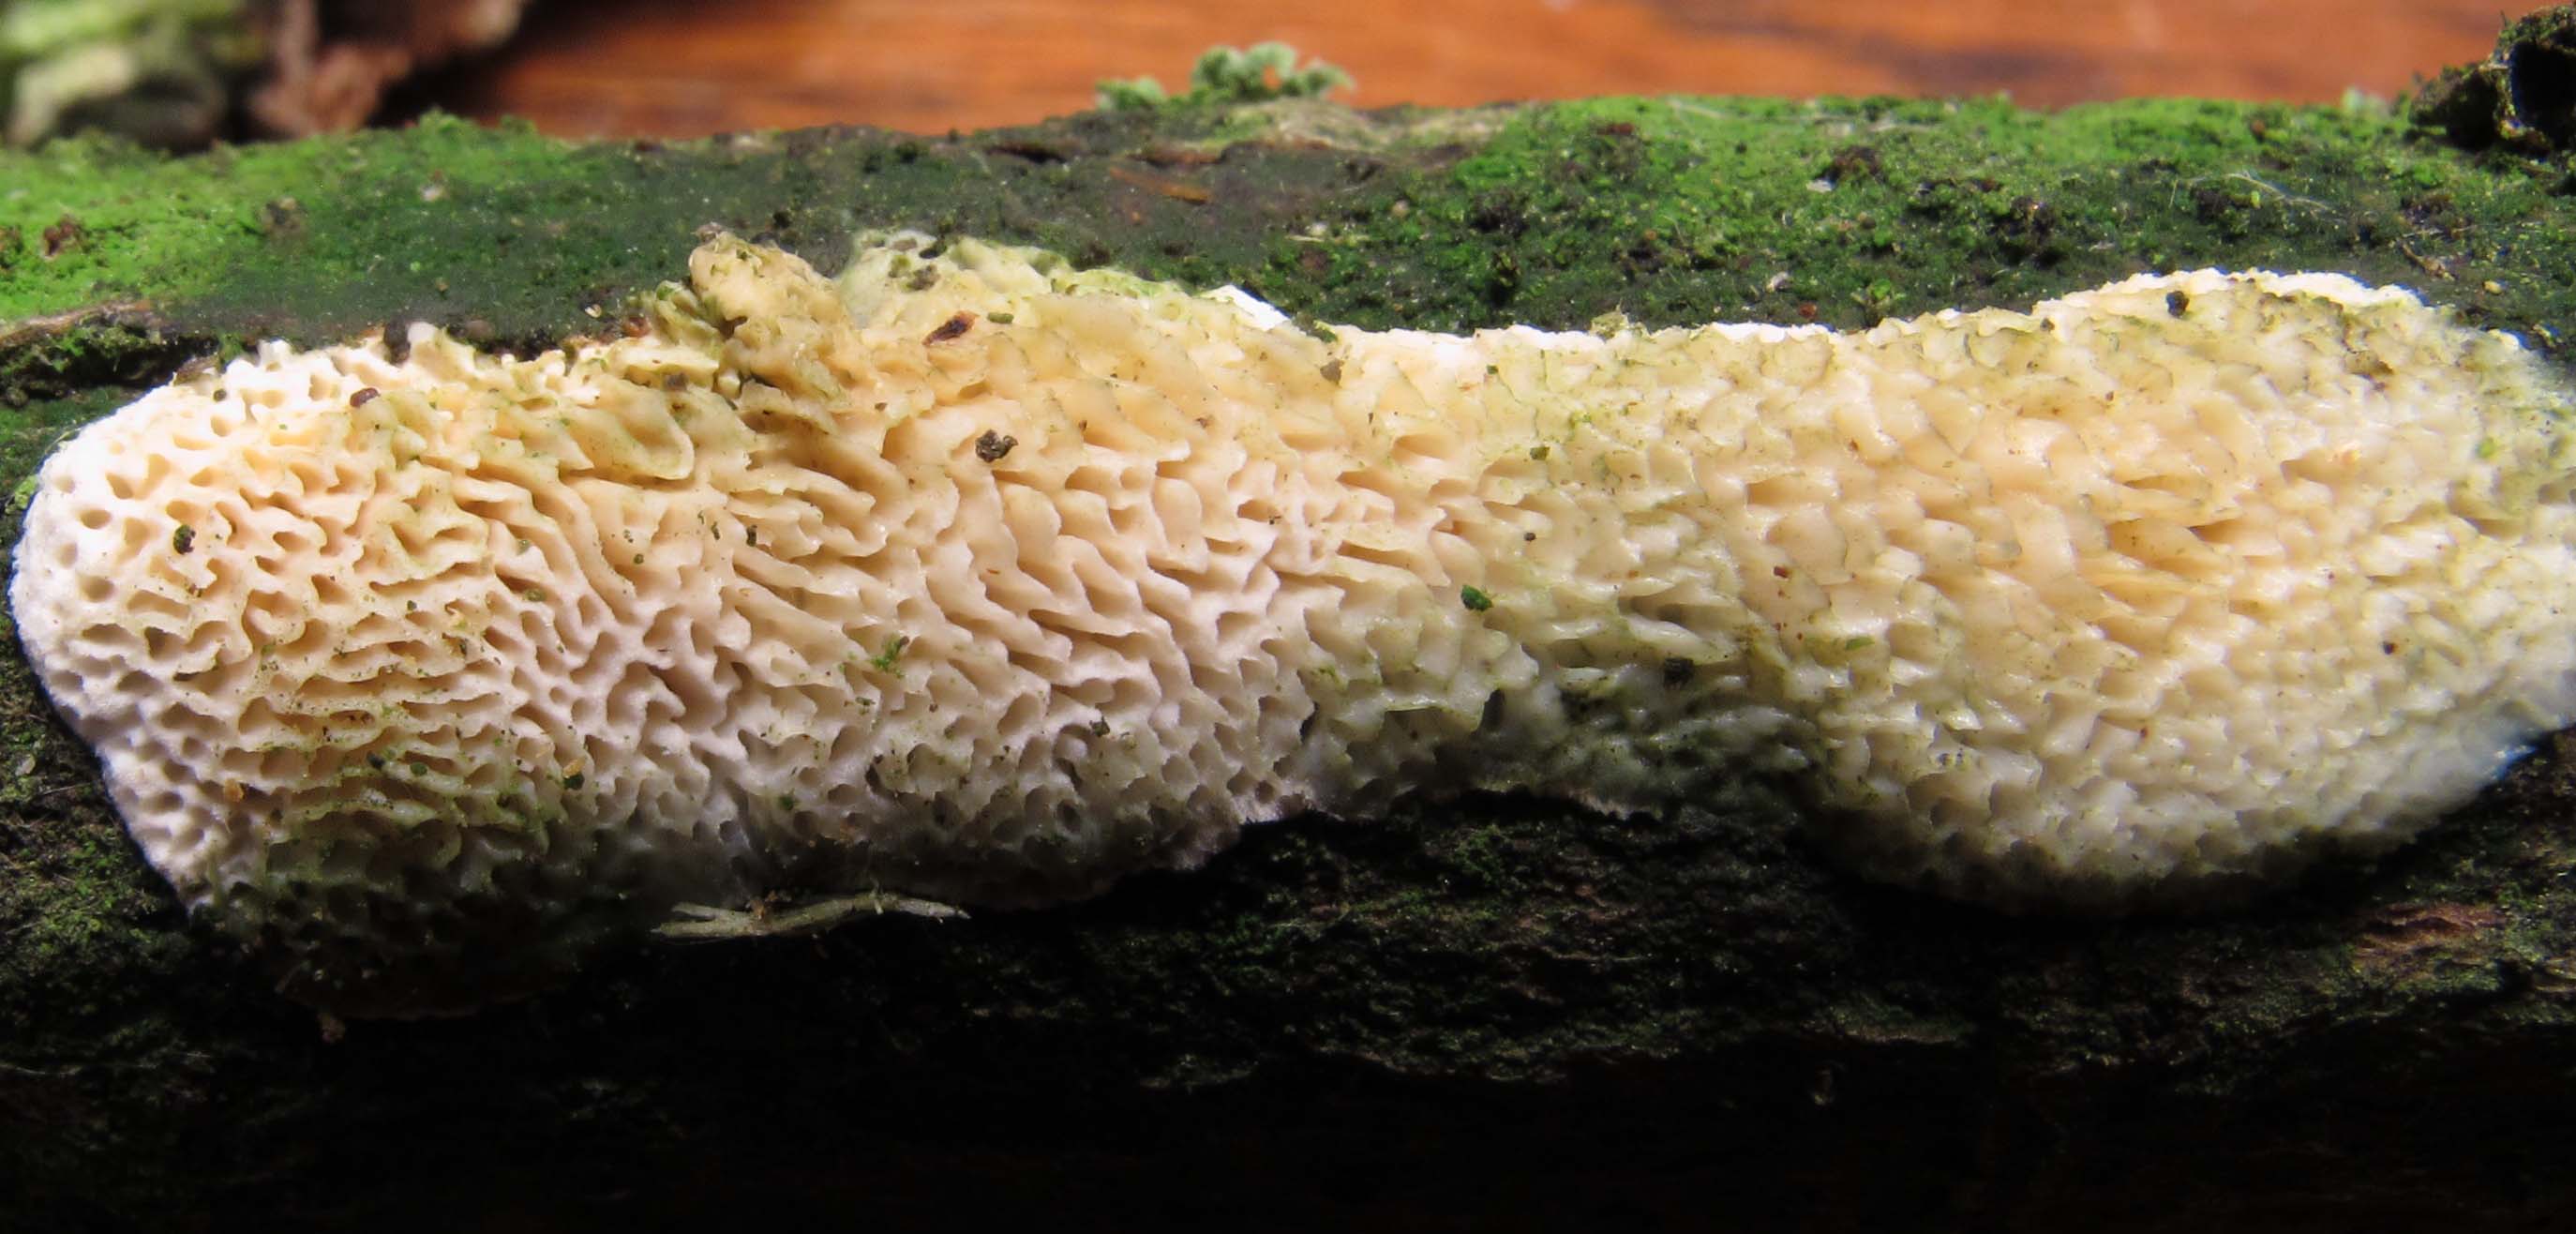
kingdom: Fungi
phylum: Basidiomycota
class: Agaricomycetes
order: Polyporales
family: Fomitopsidaceae
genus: Brunneoporus
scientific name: Brunneoporus kuzyanus
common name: brunlig sejporesvamp
